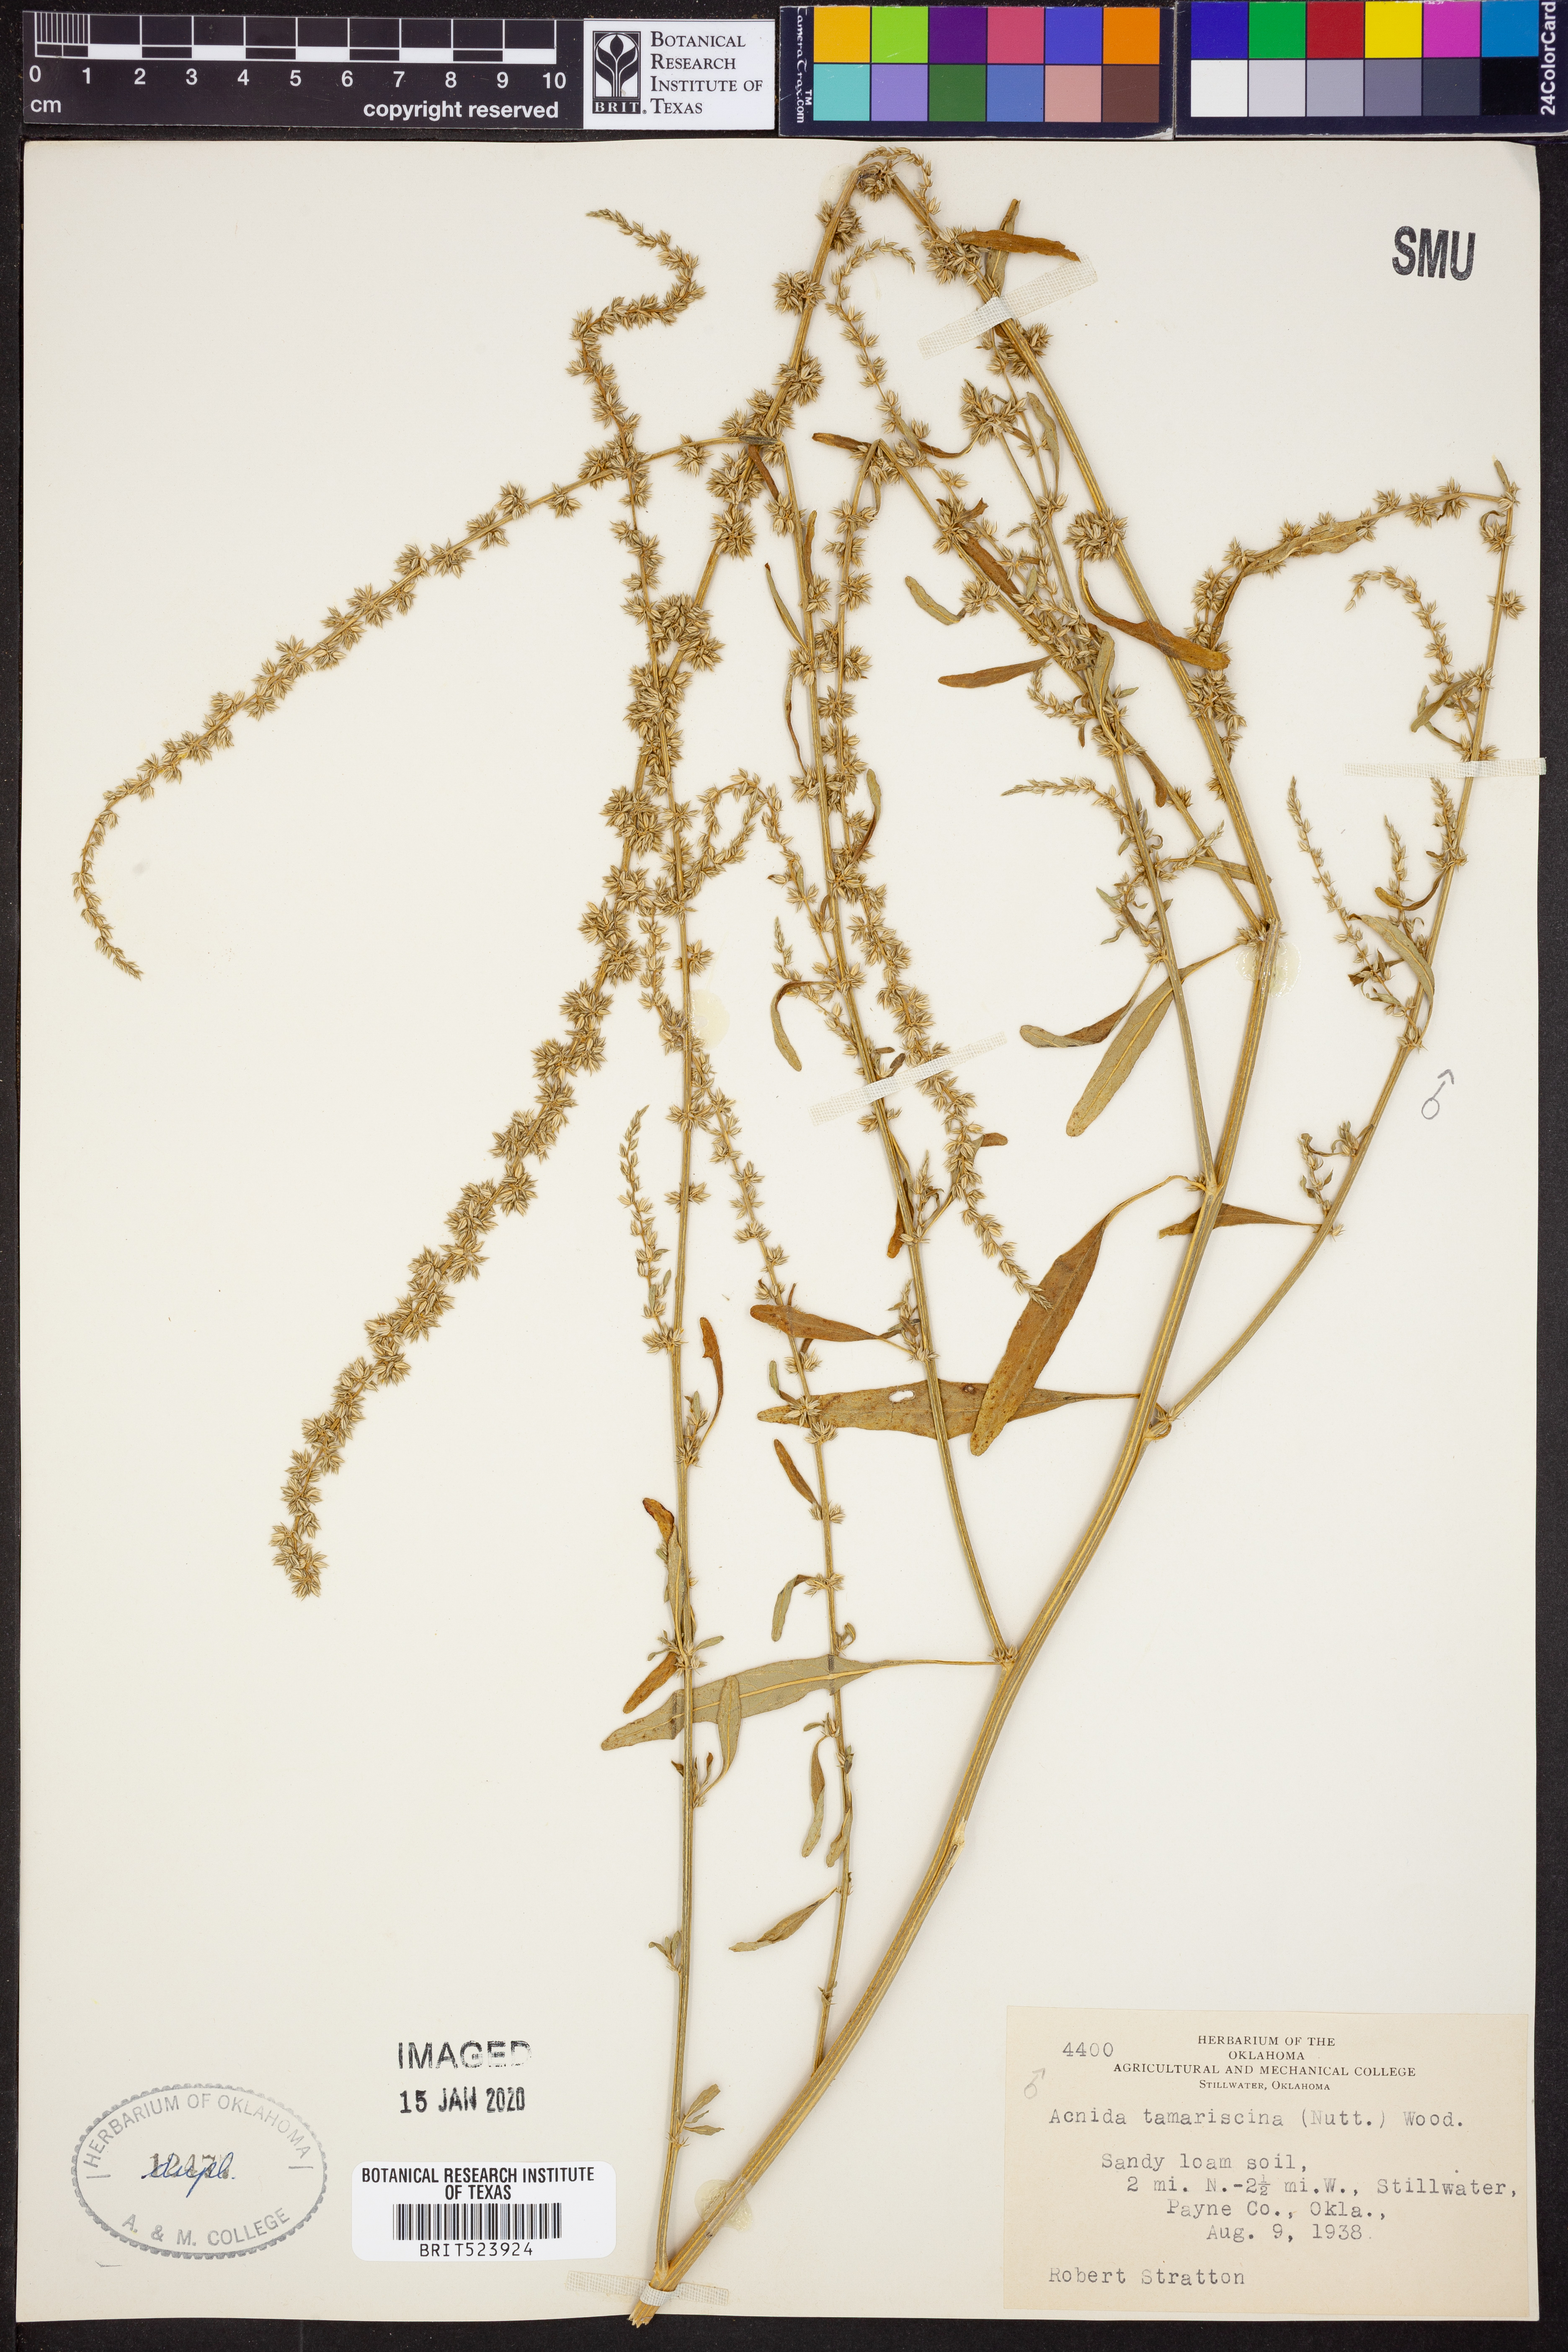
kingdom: Plantae
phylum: Tracheophyta
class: Magnoliopsida
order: Caryophyllales
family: Amaranthaceae
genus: Amaranthus
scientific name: Amaranthus tamariscinus
